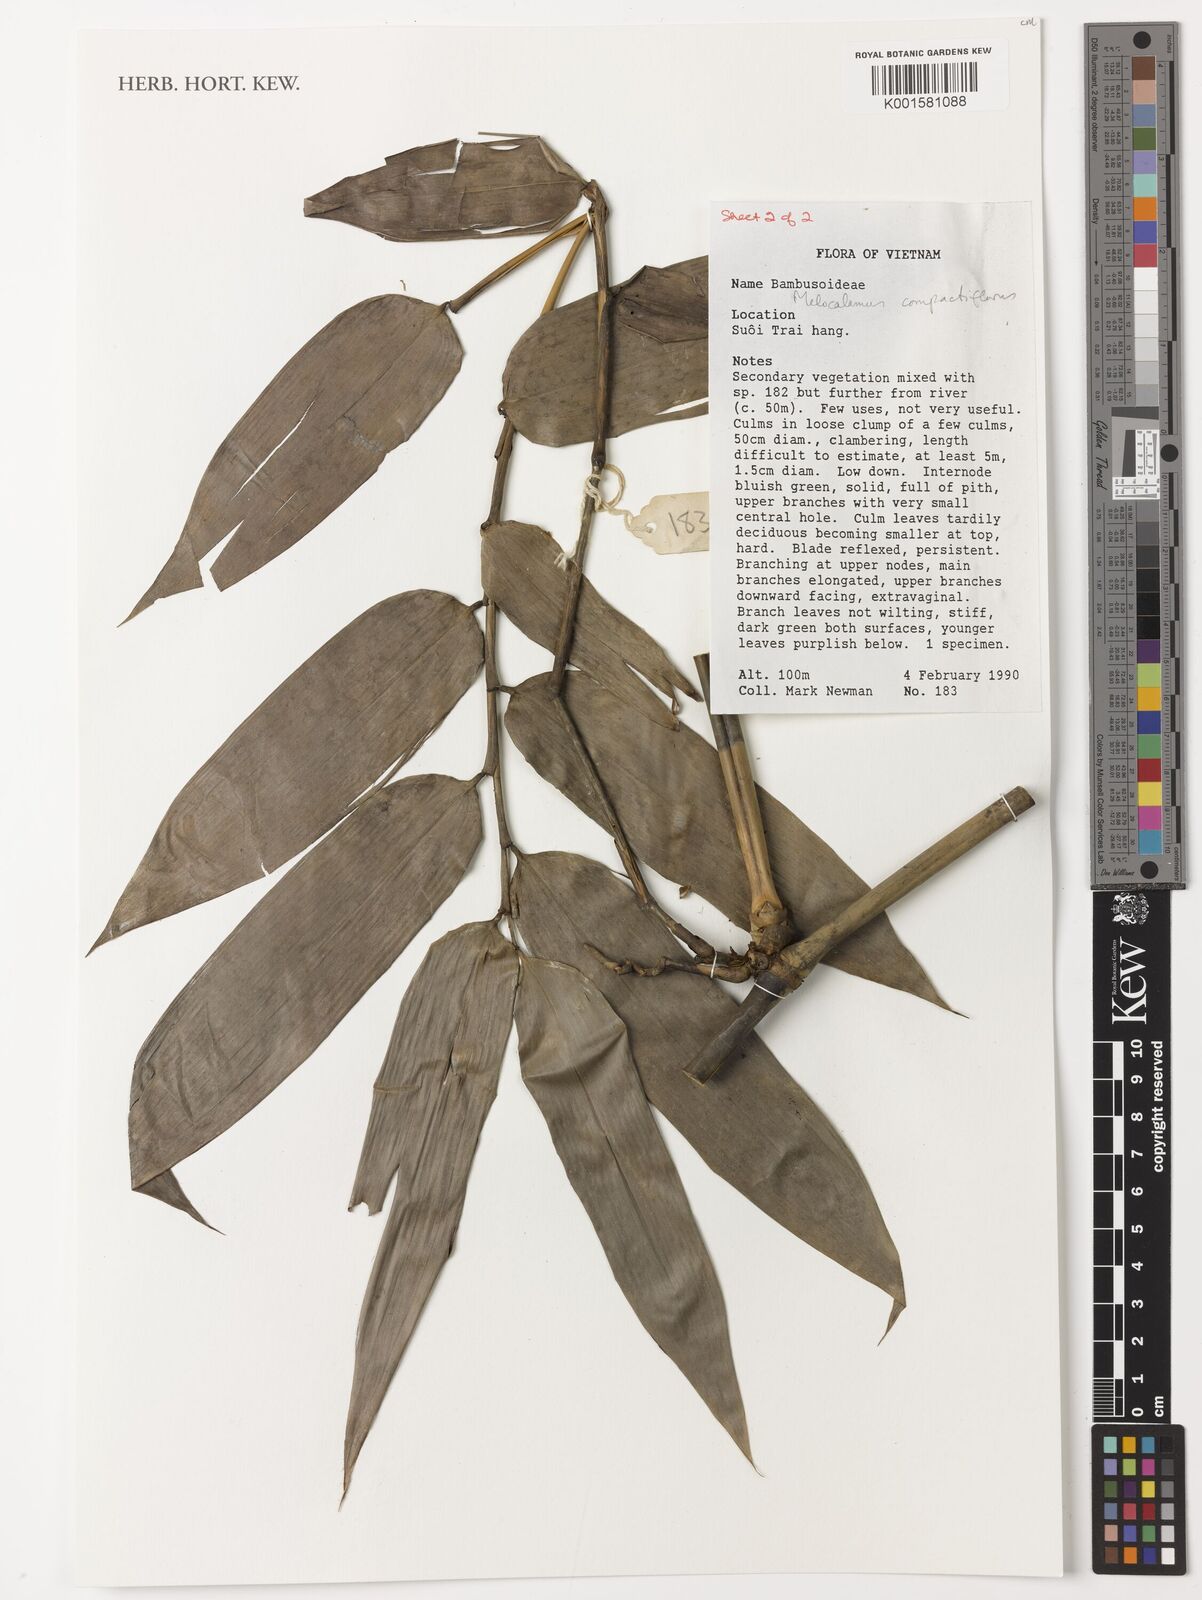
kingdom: Plantae
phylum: Tracheophyta
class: Liliopsida
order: Poales
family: Poaceae
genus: Melocalamus
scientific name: Melocalamus compactiflorus
